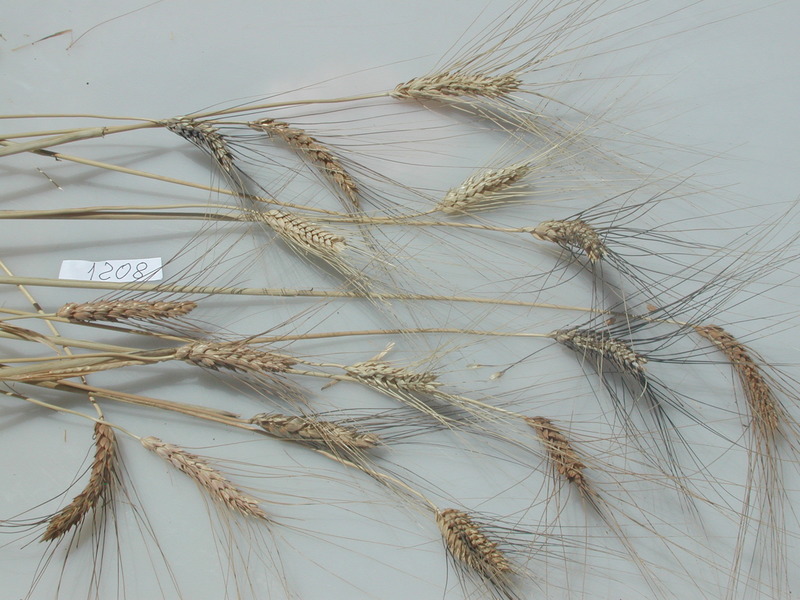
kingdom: Plantae
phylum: Tracheophyta
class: Liliopsida
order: Poales
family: Poaceae
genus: Triticum
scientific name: Triticum turgidum
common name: Wheat
